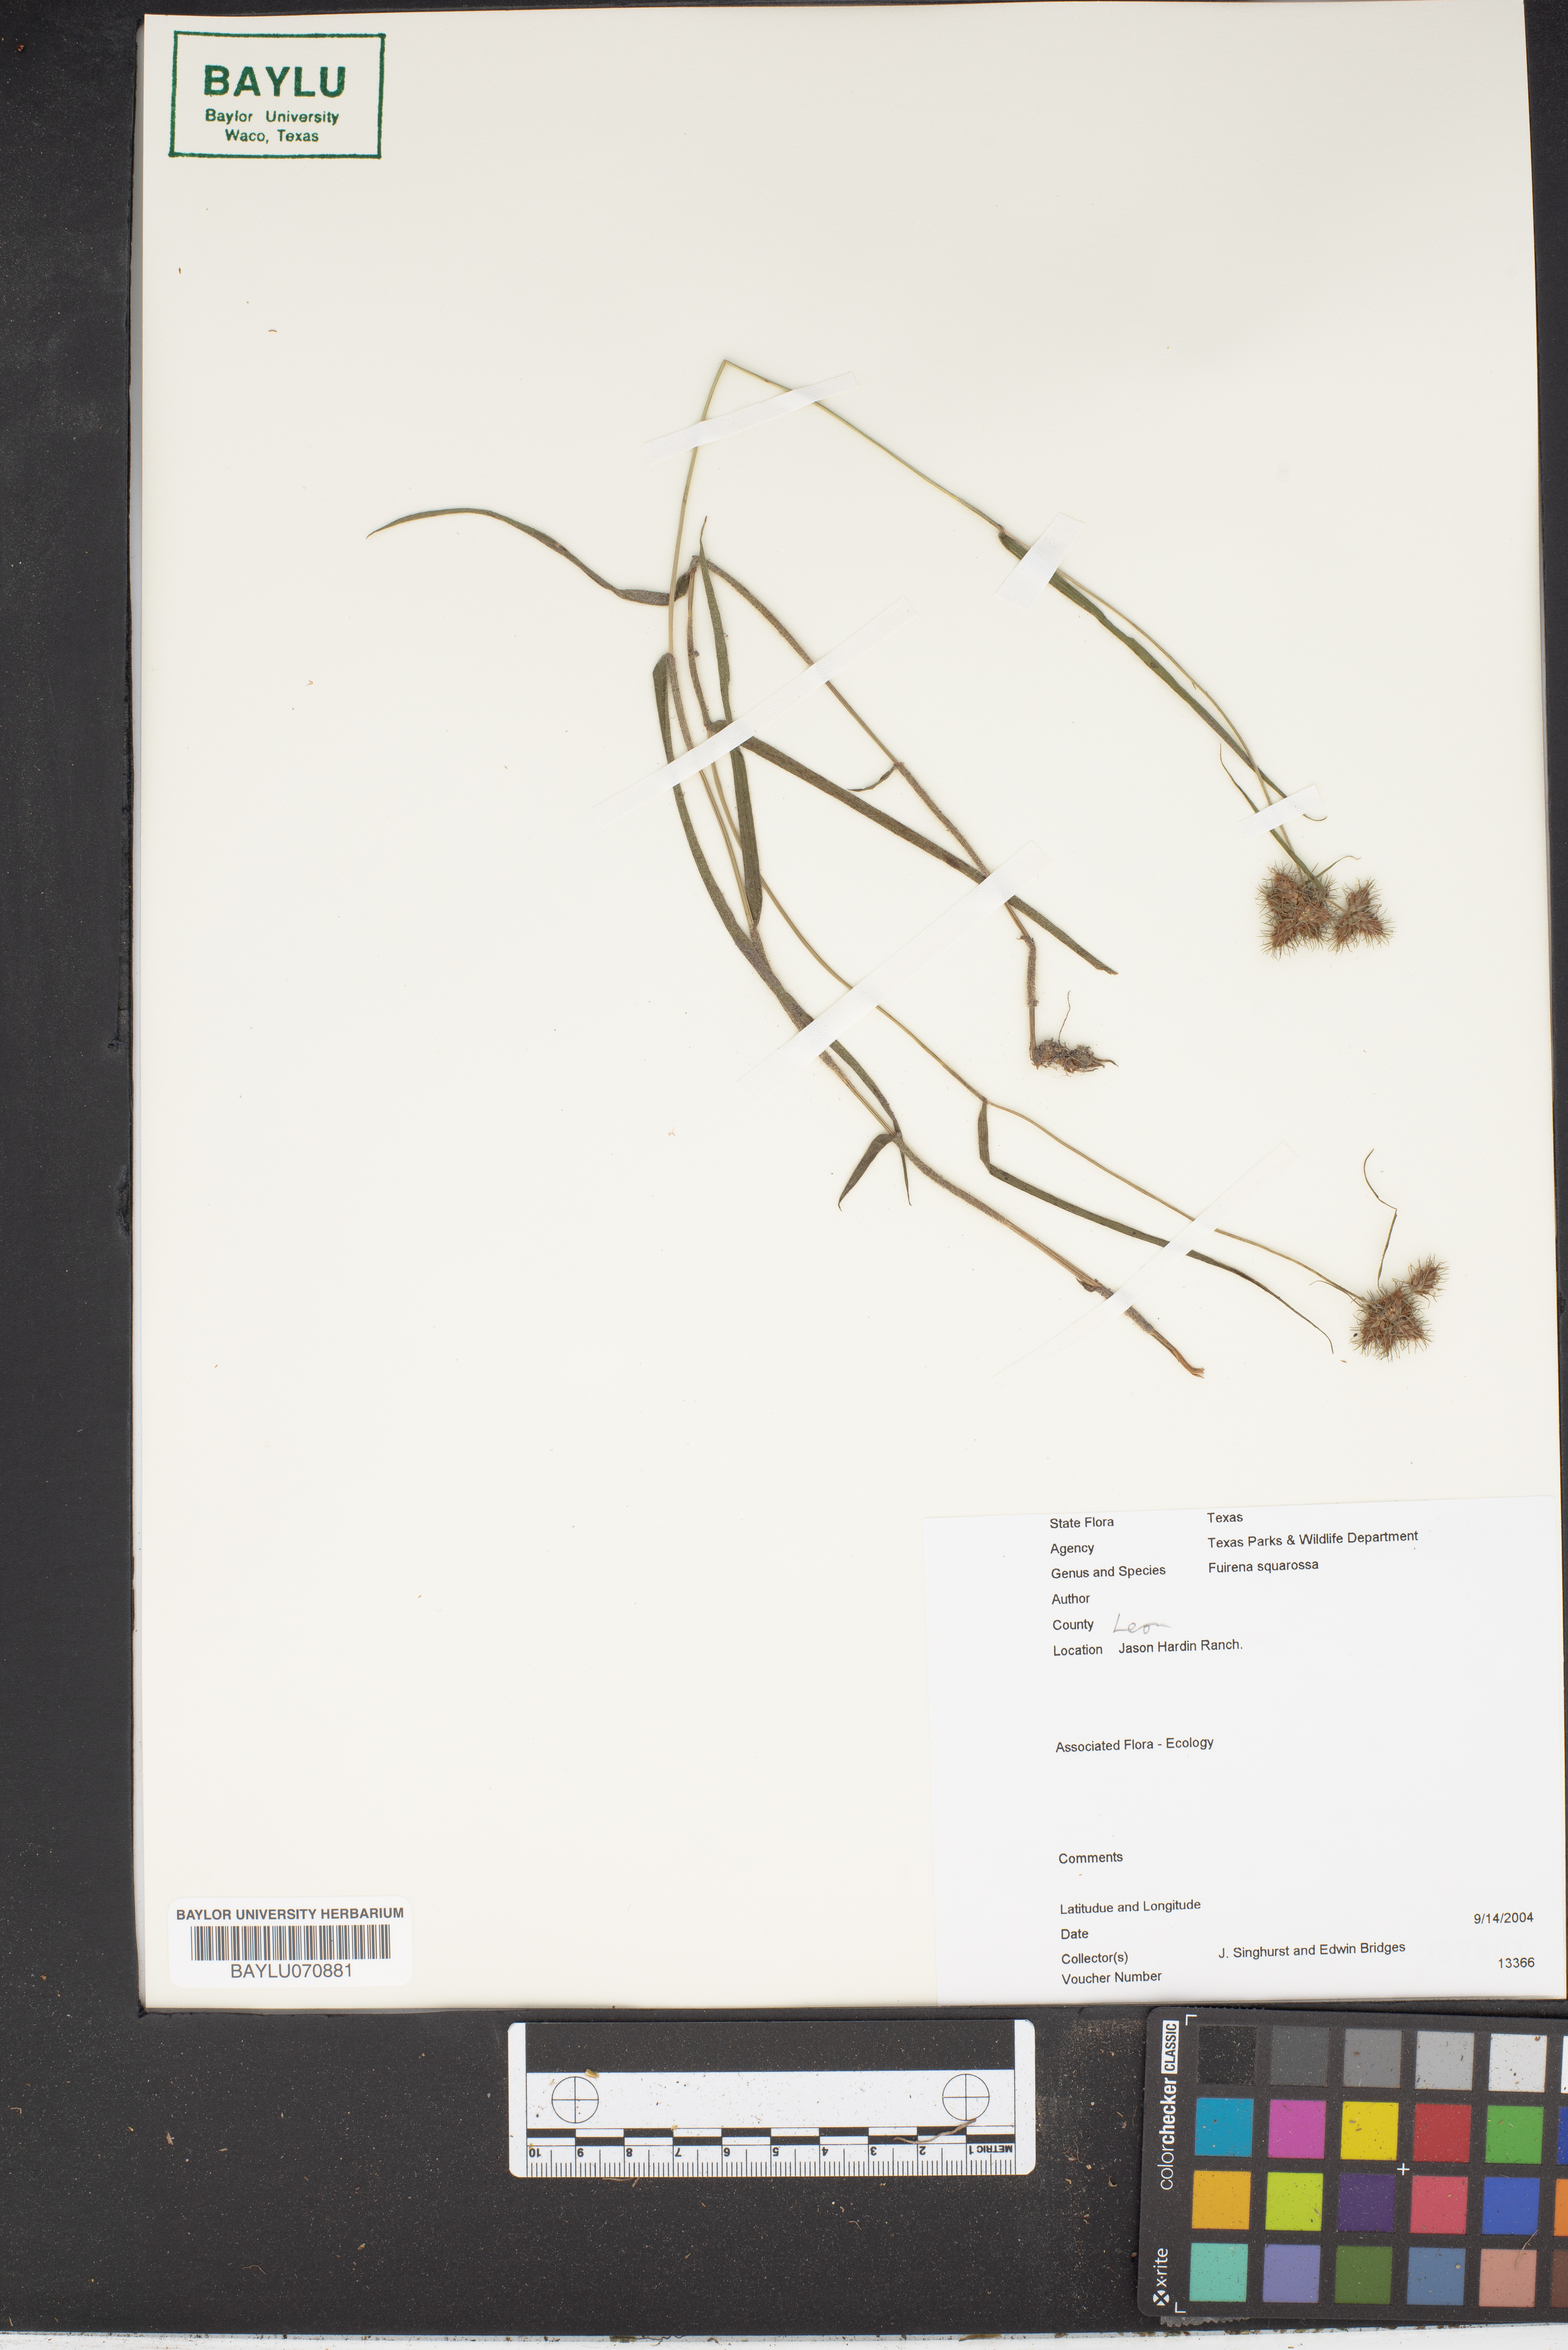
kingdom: Plantae
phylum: Tracheophyta
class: Liliopsida
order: Poales
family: Cyperaceae
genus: Fuirena
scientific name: Fuirena squarrosa
